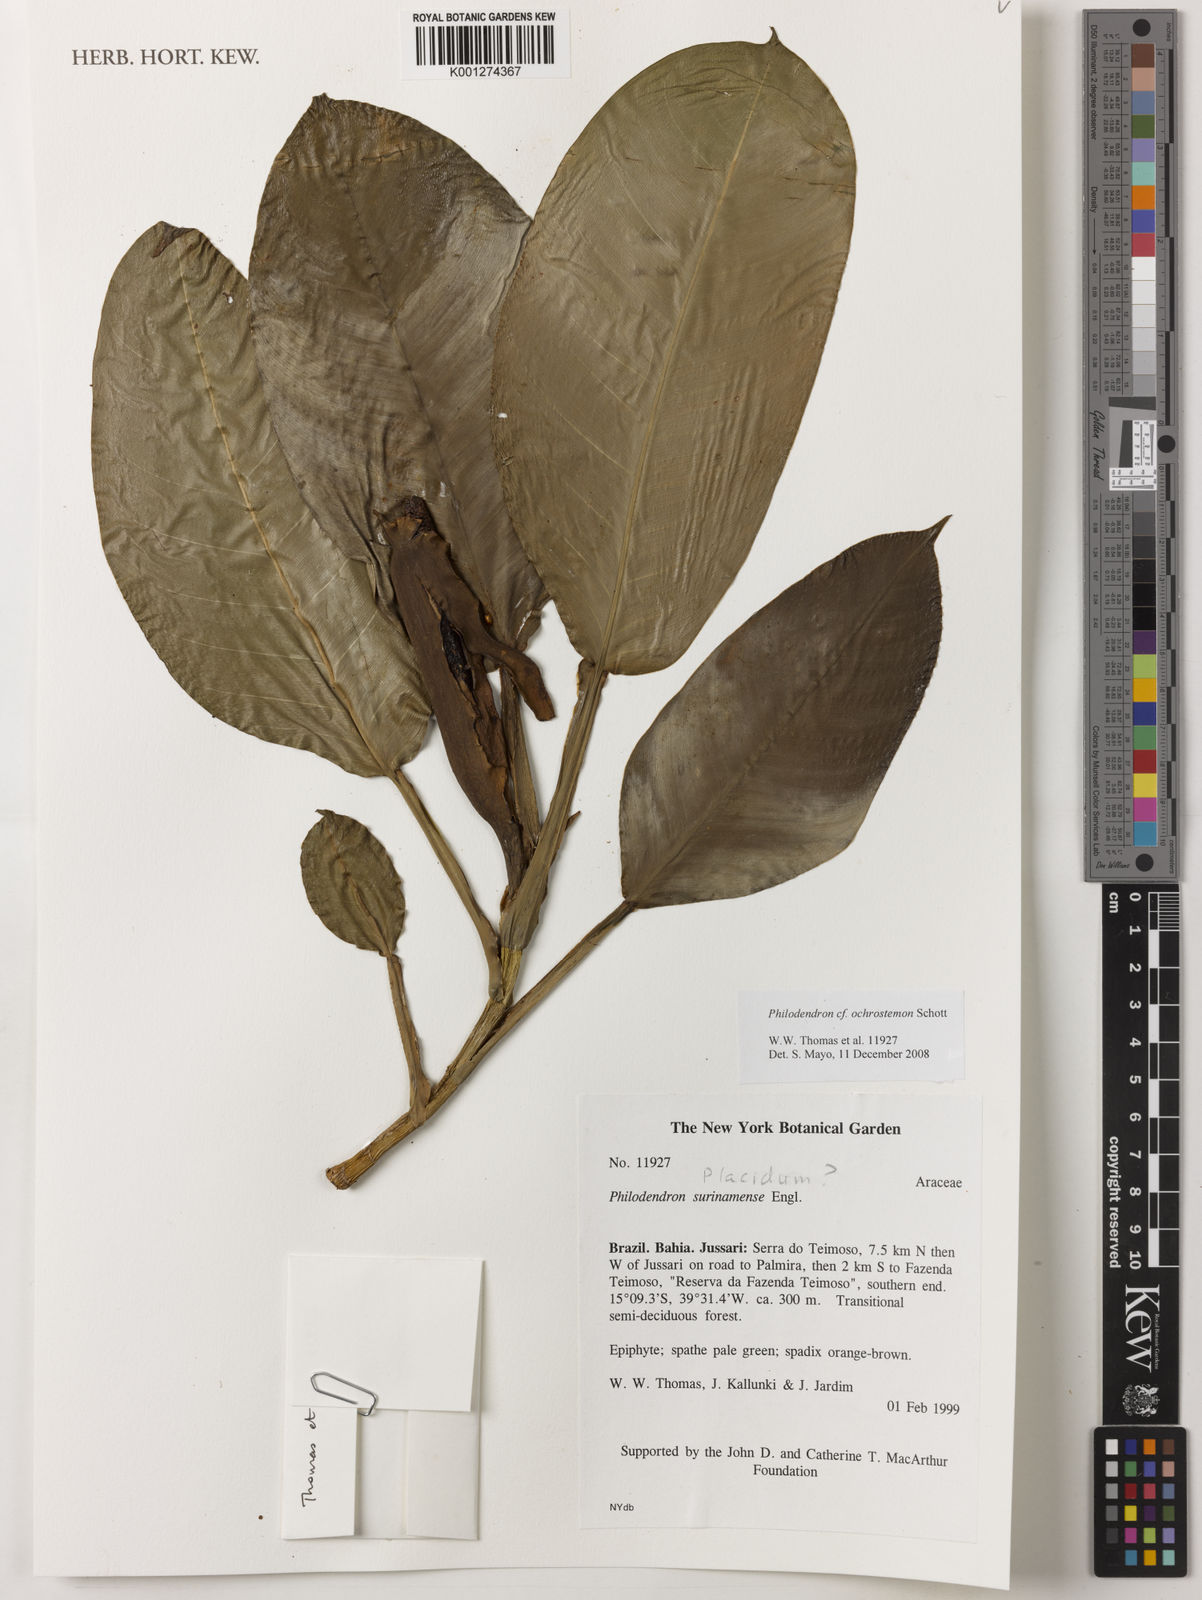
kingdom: Plantae
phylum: Tracheophyta
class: Liliopsida
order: Alismatales
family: Araceae
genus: Philodendron
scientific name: Philodendron ochrostemon
